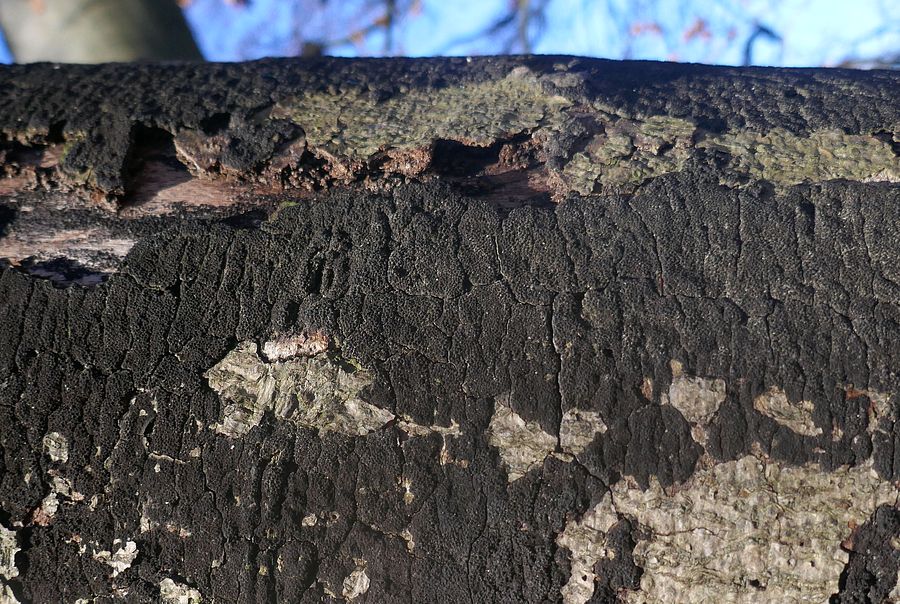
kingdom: Fungi
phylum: Ascomycota
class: Sordariomycetes
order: Xylariales
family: Diatrypaceae
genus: Eutypa
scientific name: Eutypa spinosa
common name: grov kulskorpe
